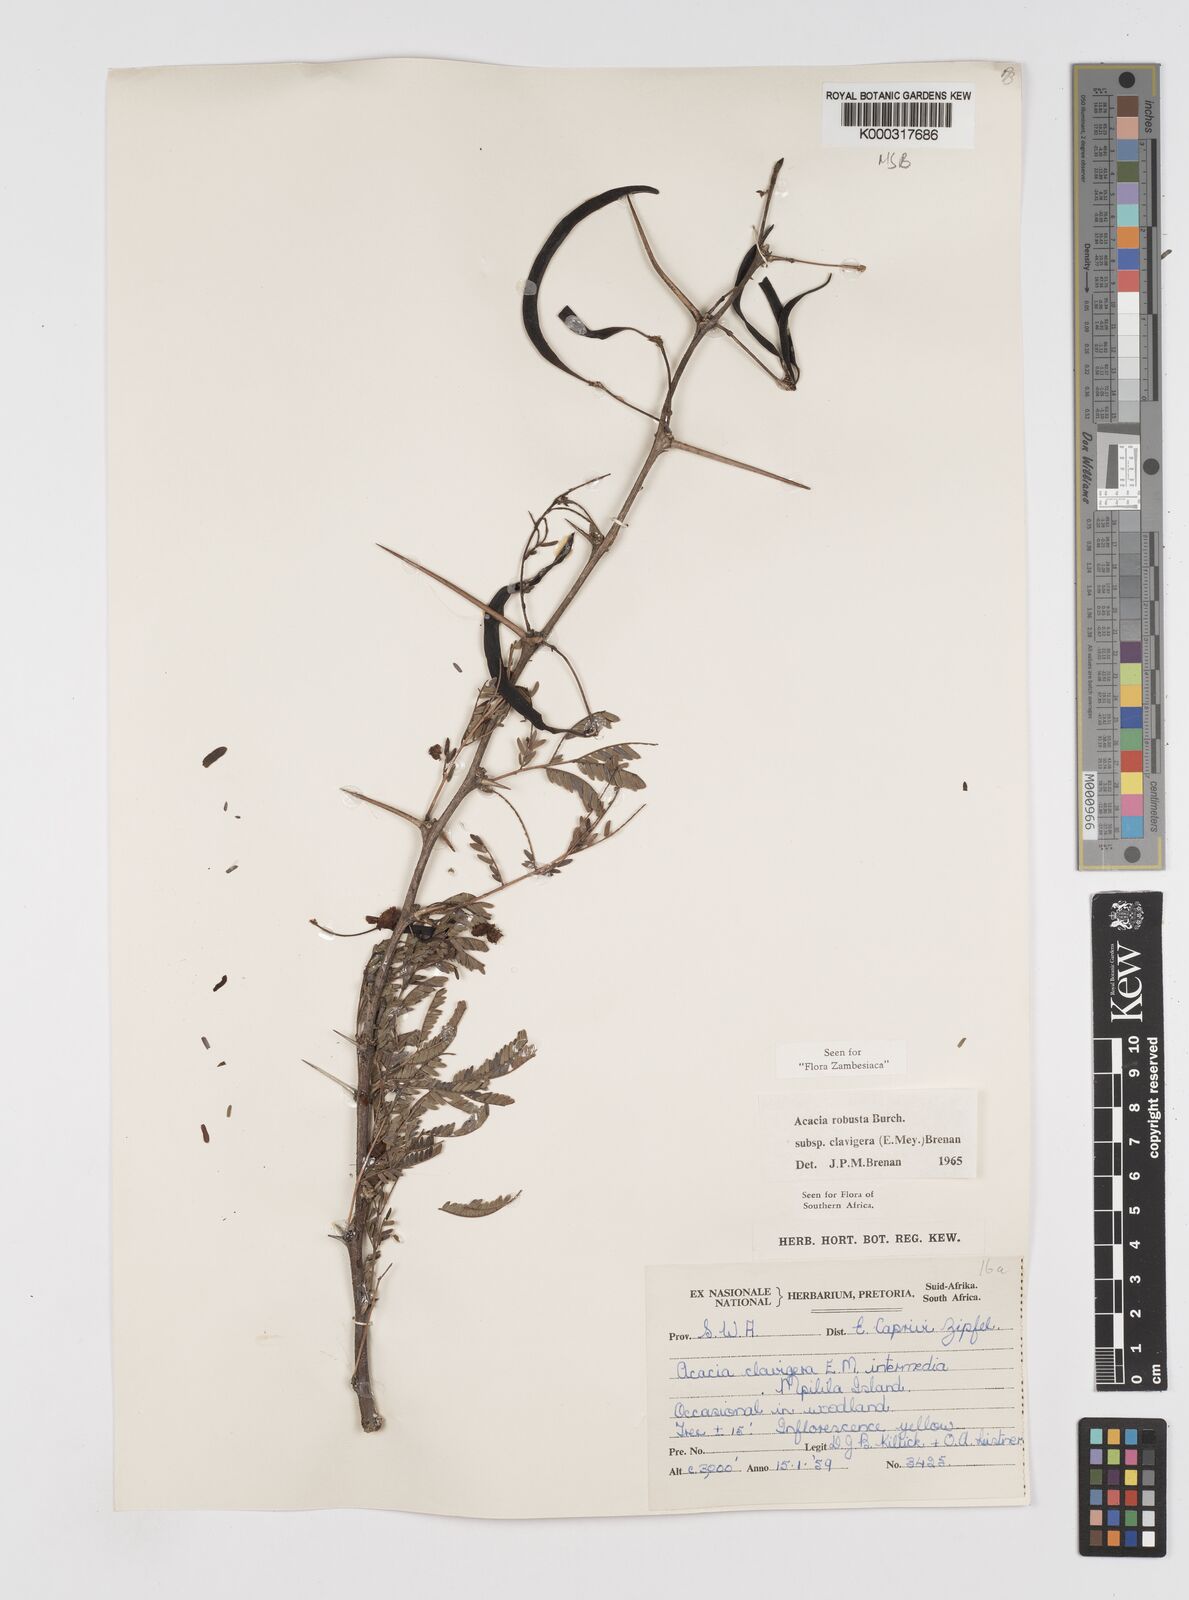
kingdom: Plantae
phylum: Tracheophyta
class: Magnoliopsida
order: Fabales
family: Fabaceae
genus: Vachellia
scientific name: Vachellia robusta
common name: Ankle thorn
